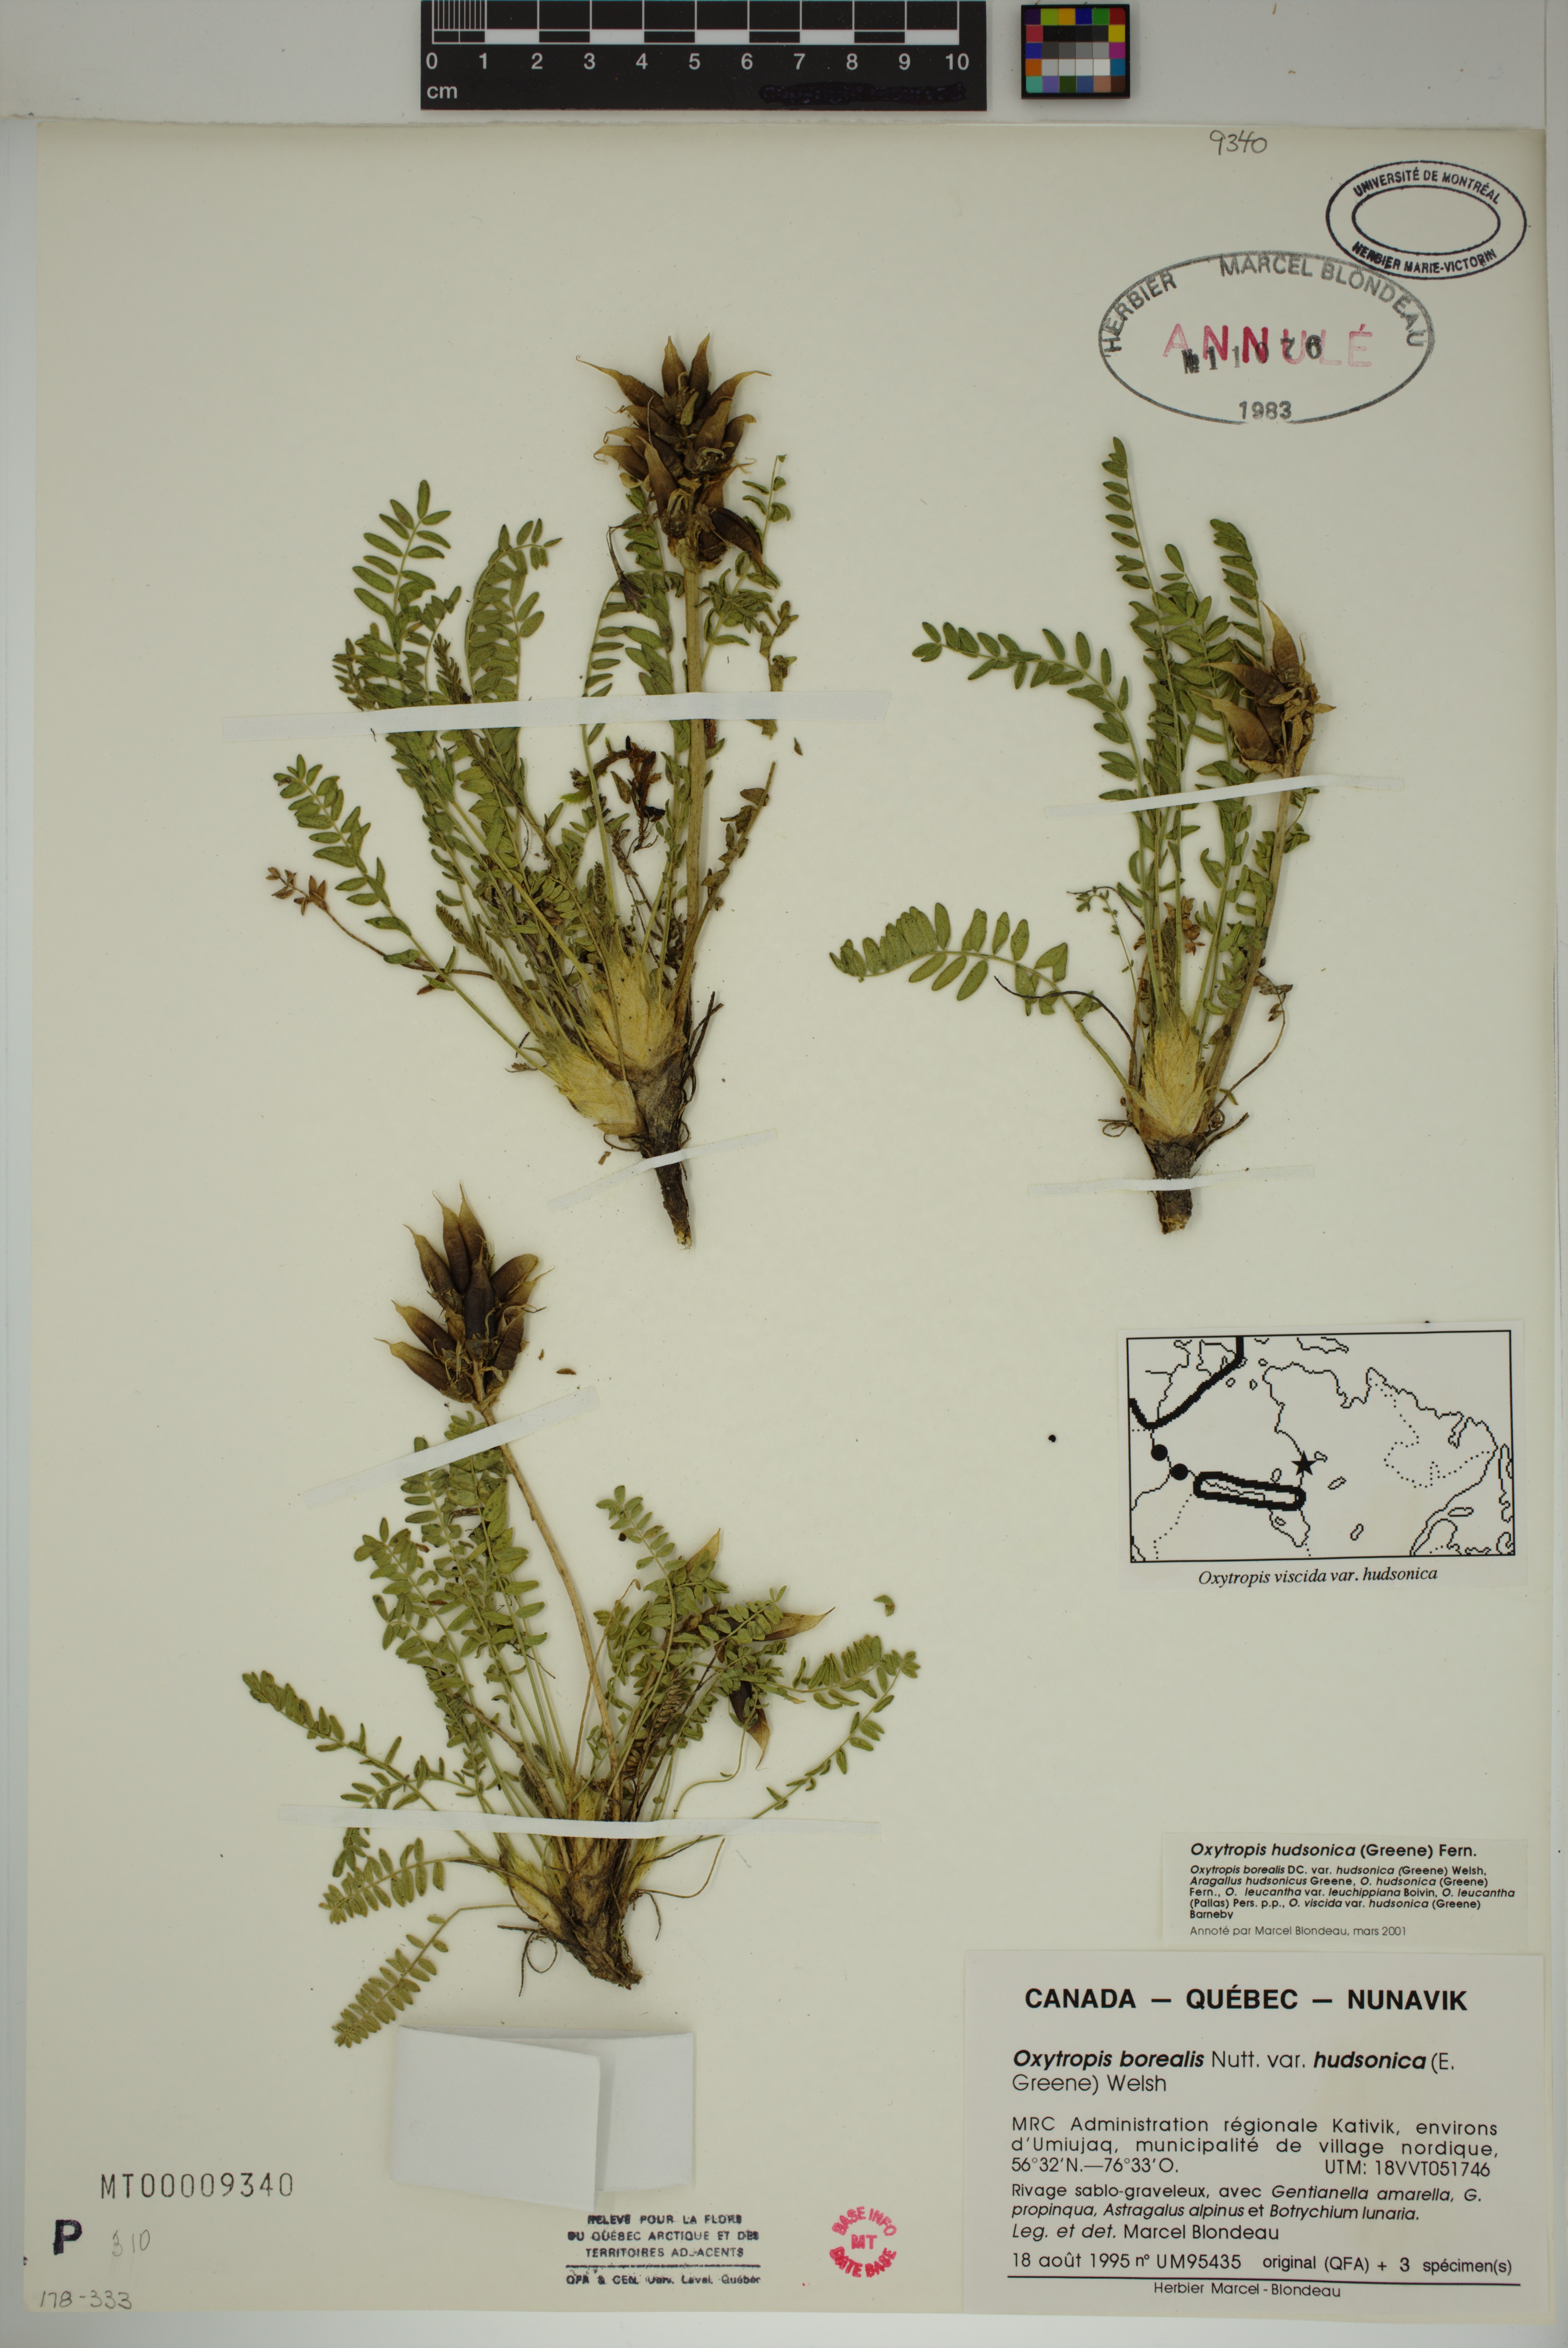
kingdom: Plantae
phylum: Tracheophyta
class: Magnoliopsida
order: Fabales
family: Fabaceae
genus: Oxytropis
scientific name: Oxytropis hudsonica
